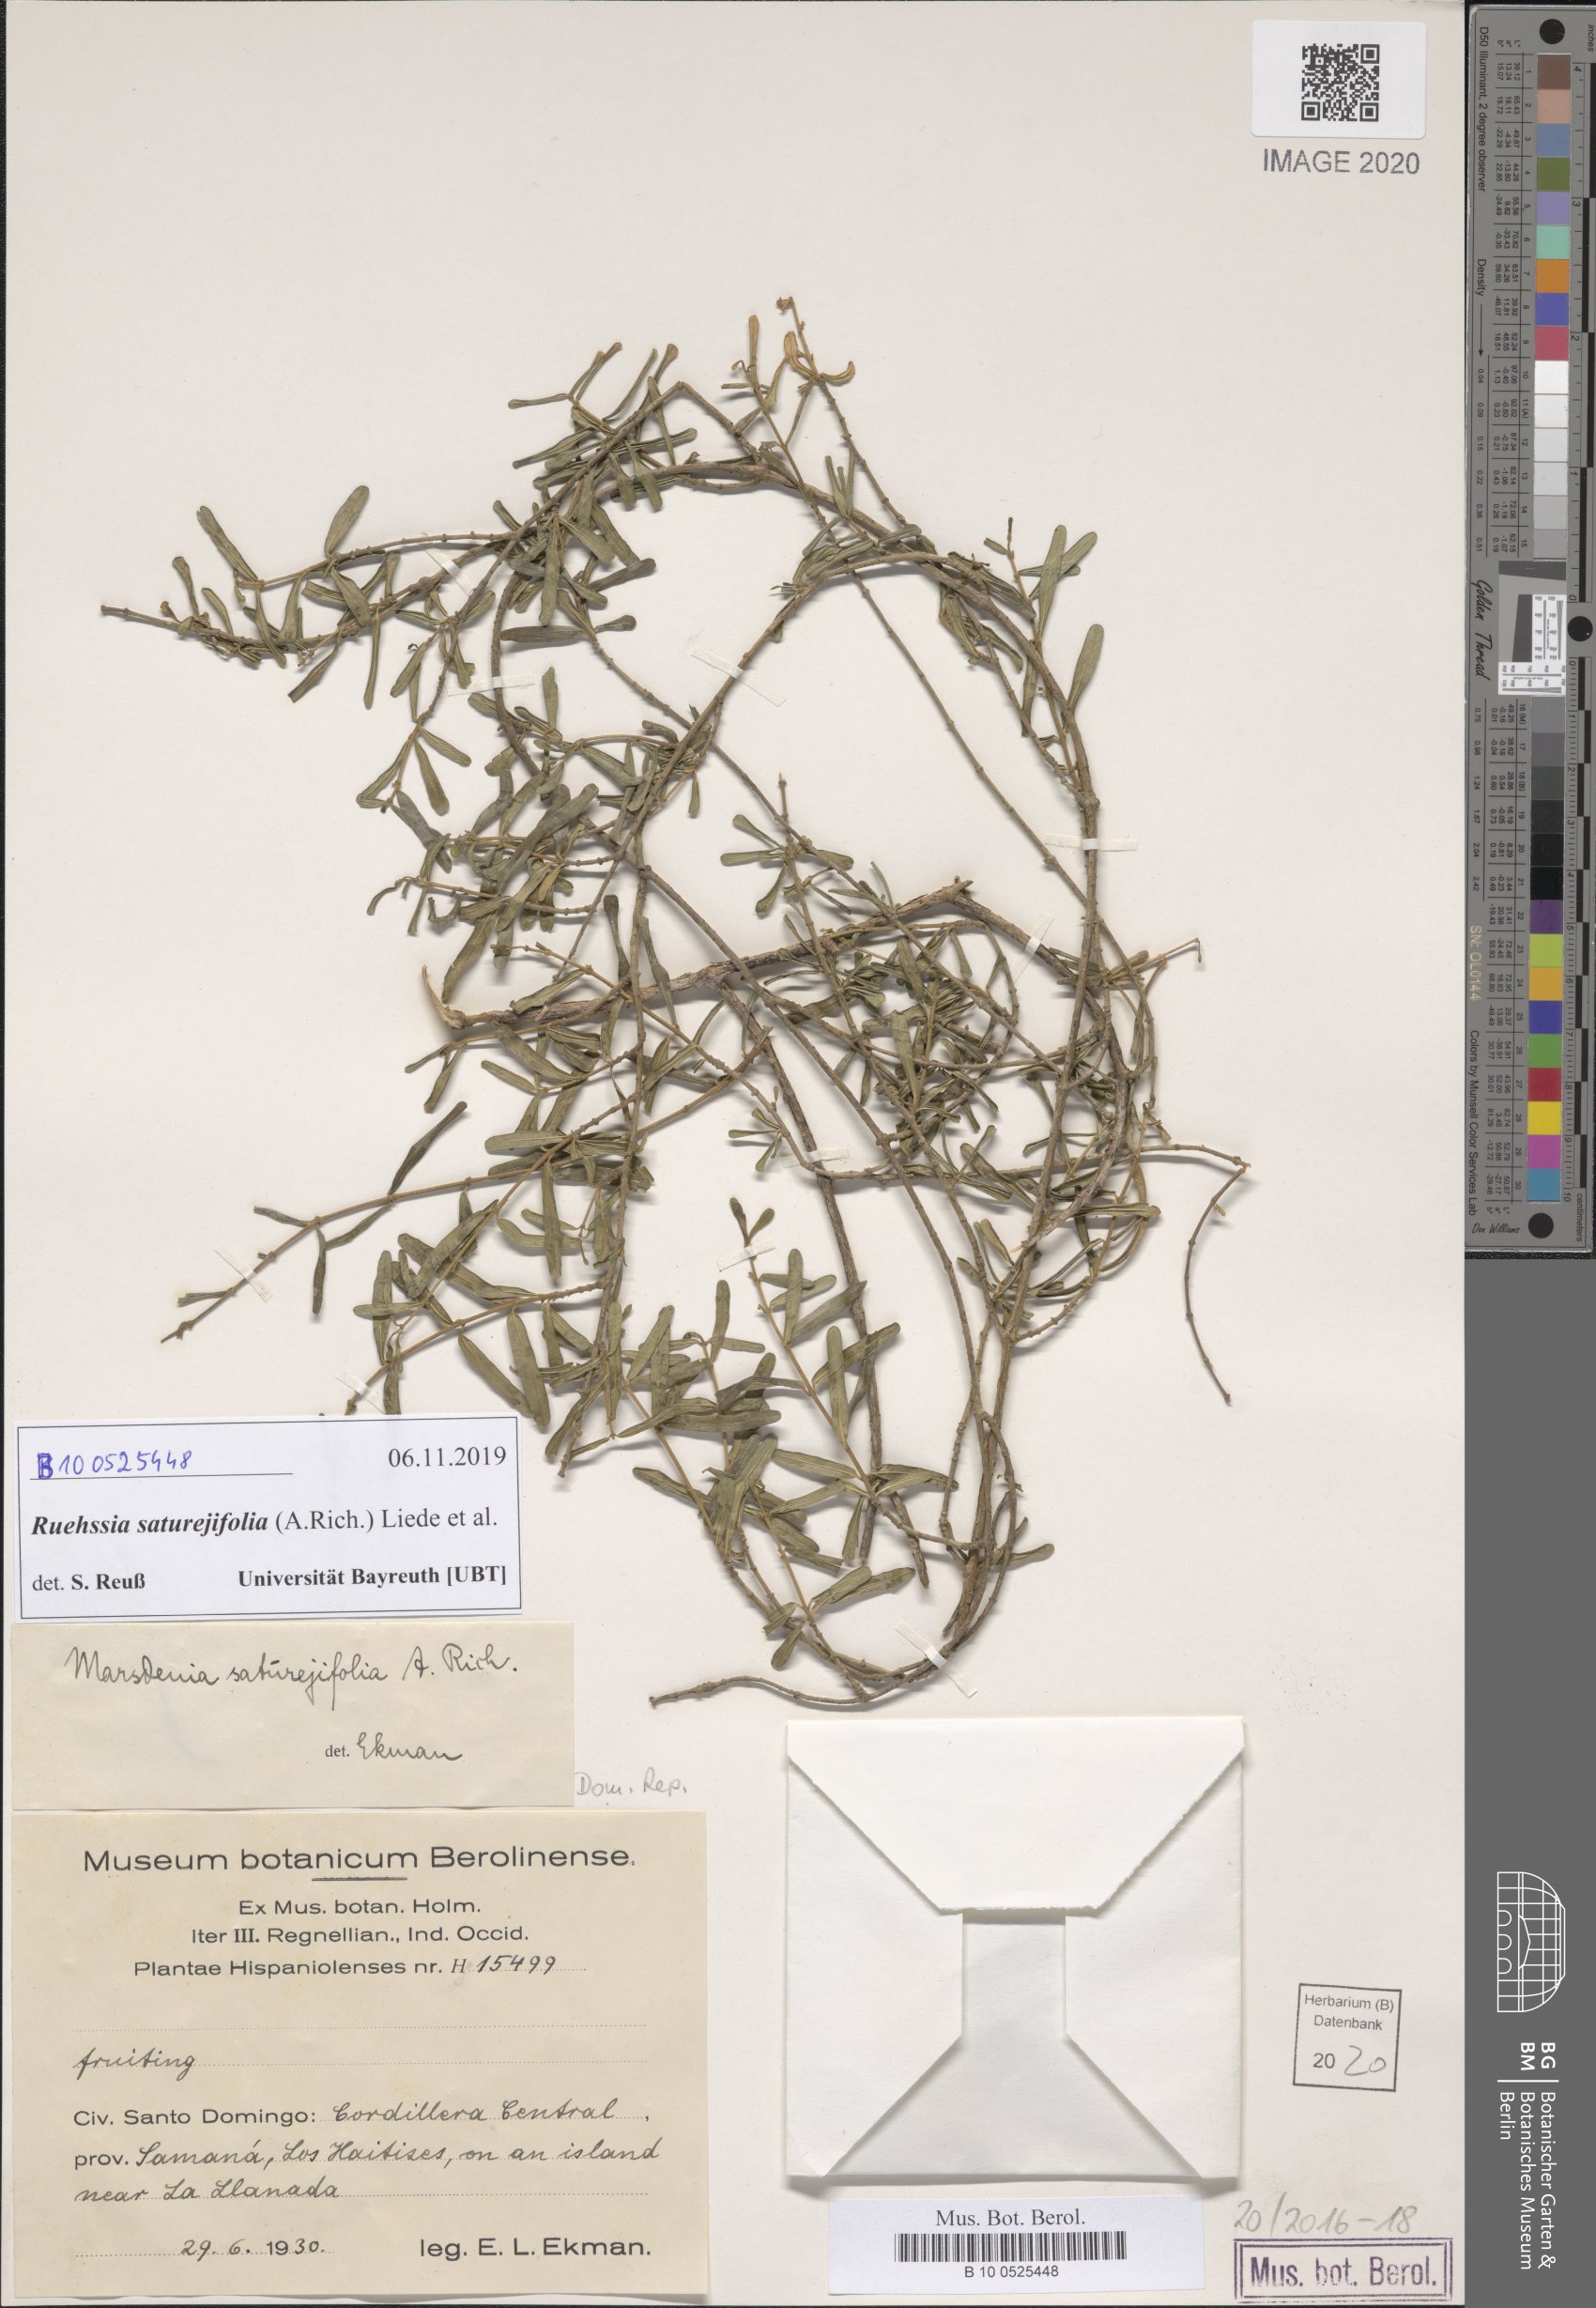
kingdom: Plantae
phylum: Tracheophyta
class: Magnoliopsida
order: Gentianales
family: Apocynaceae
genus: Ruehssia
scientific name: Ruehssia saturejifolia
